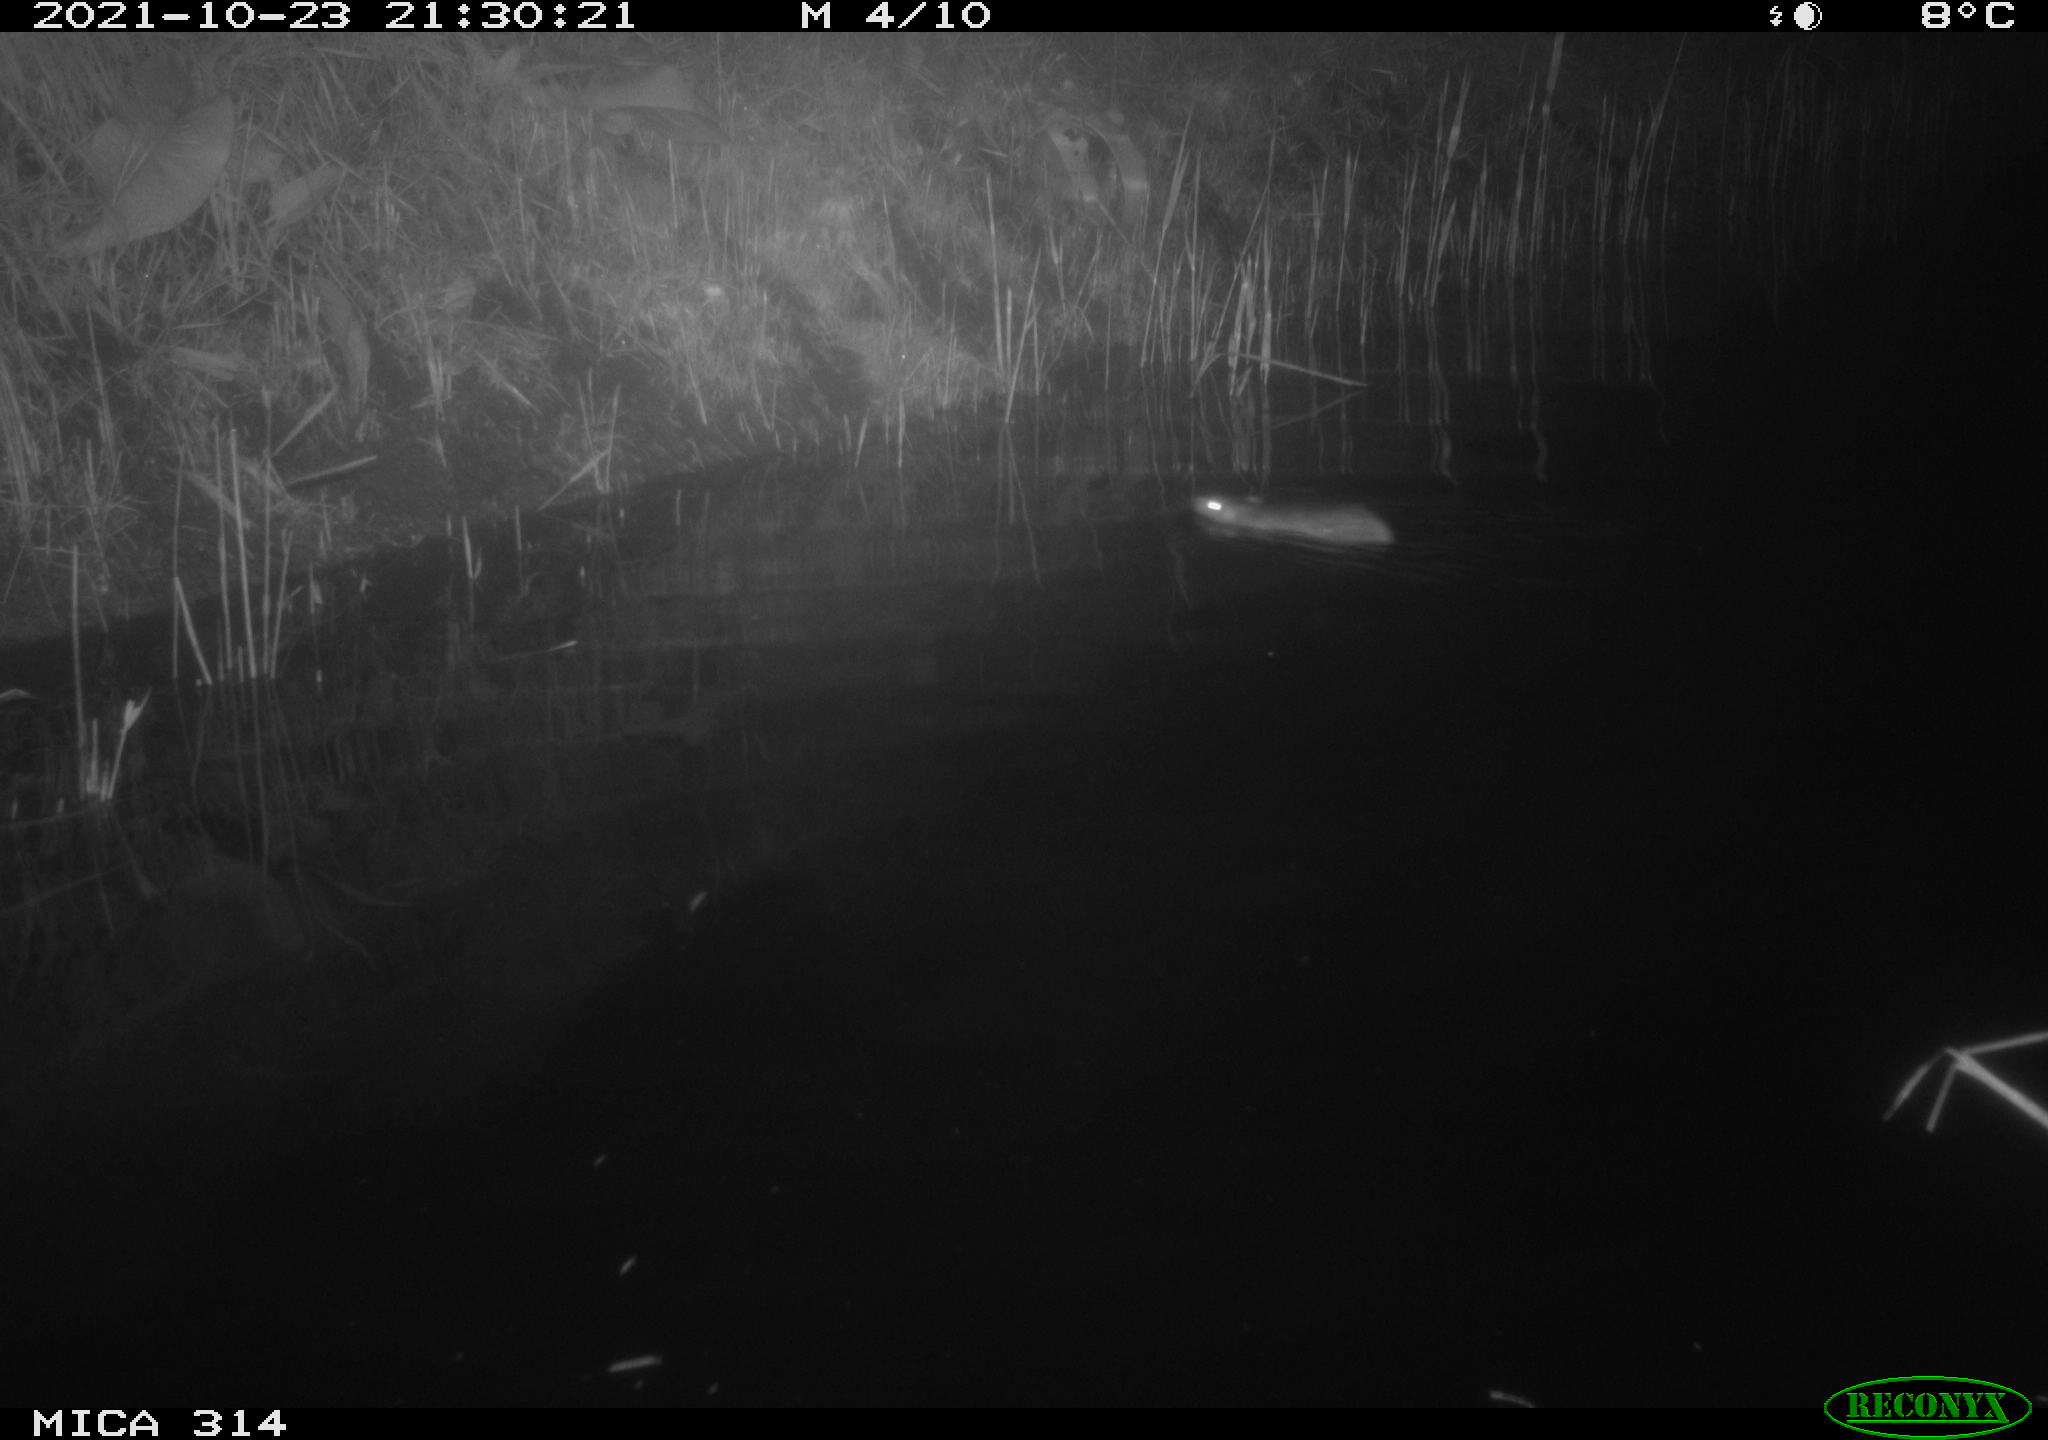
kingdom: Animalia
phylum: Chordata
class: Mammalia
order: Rodentia
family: Muridae
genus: Rattus
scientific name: Rattus norvegicus
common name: Brown rat
